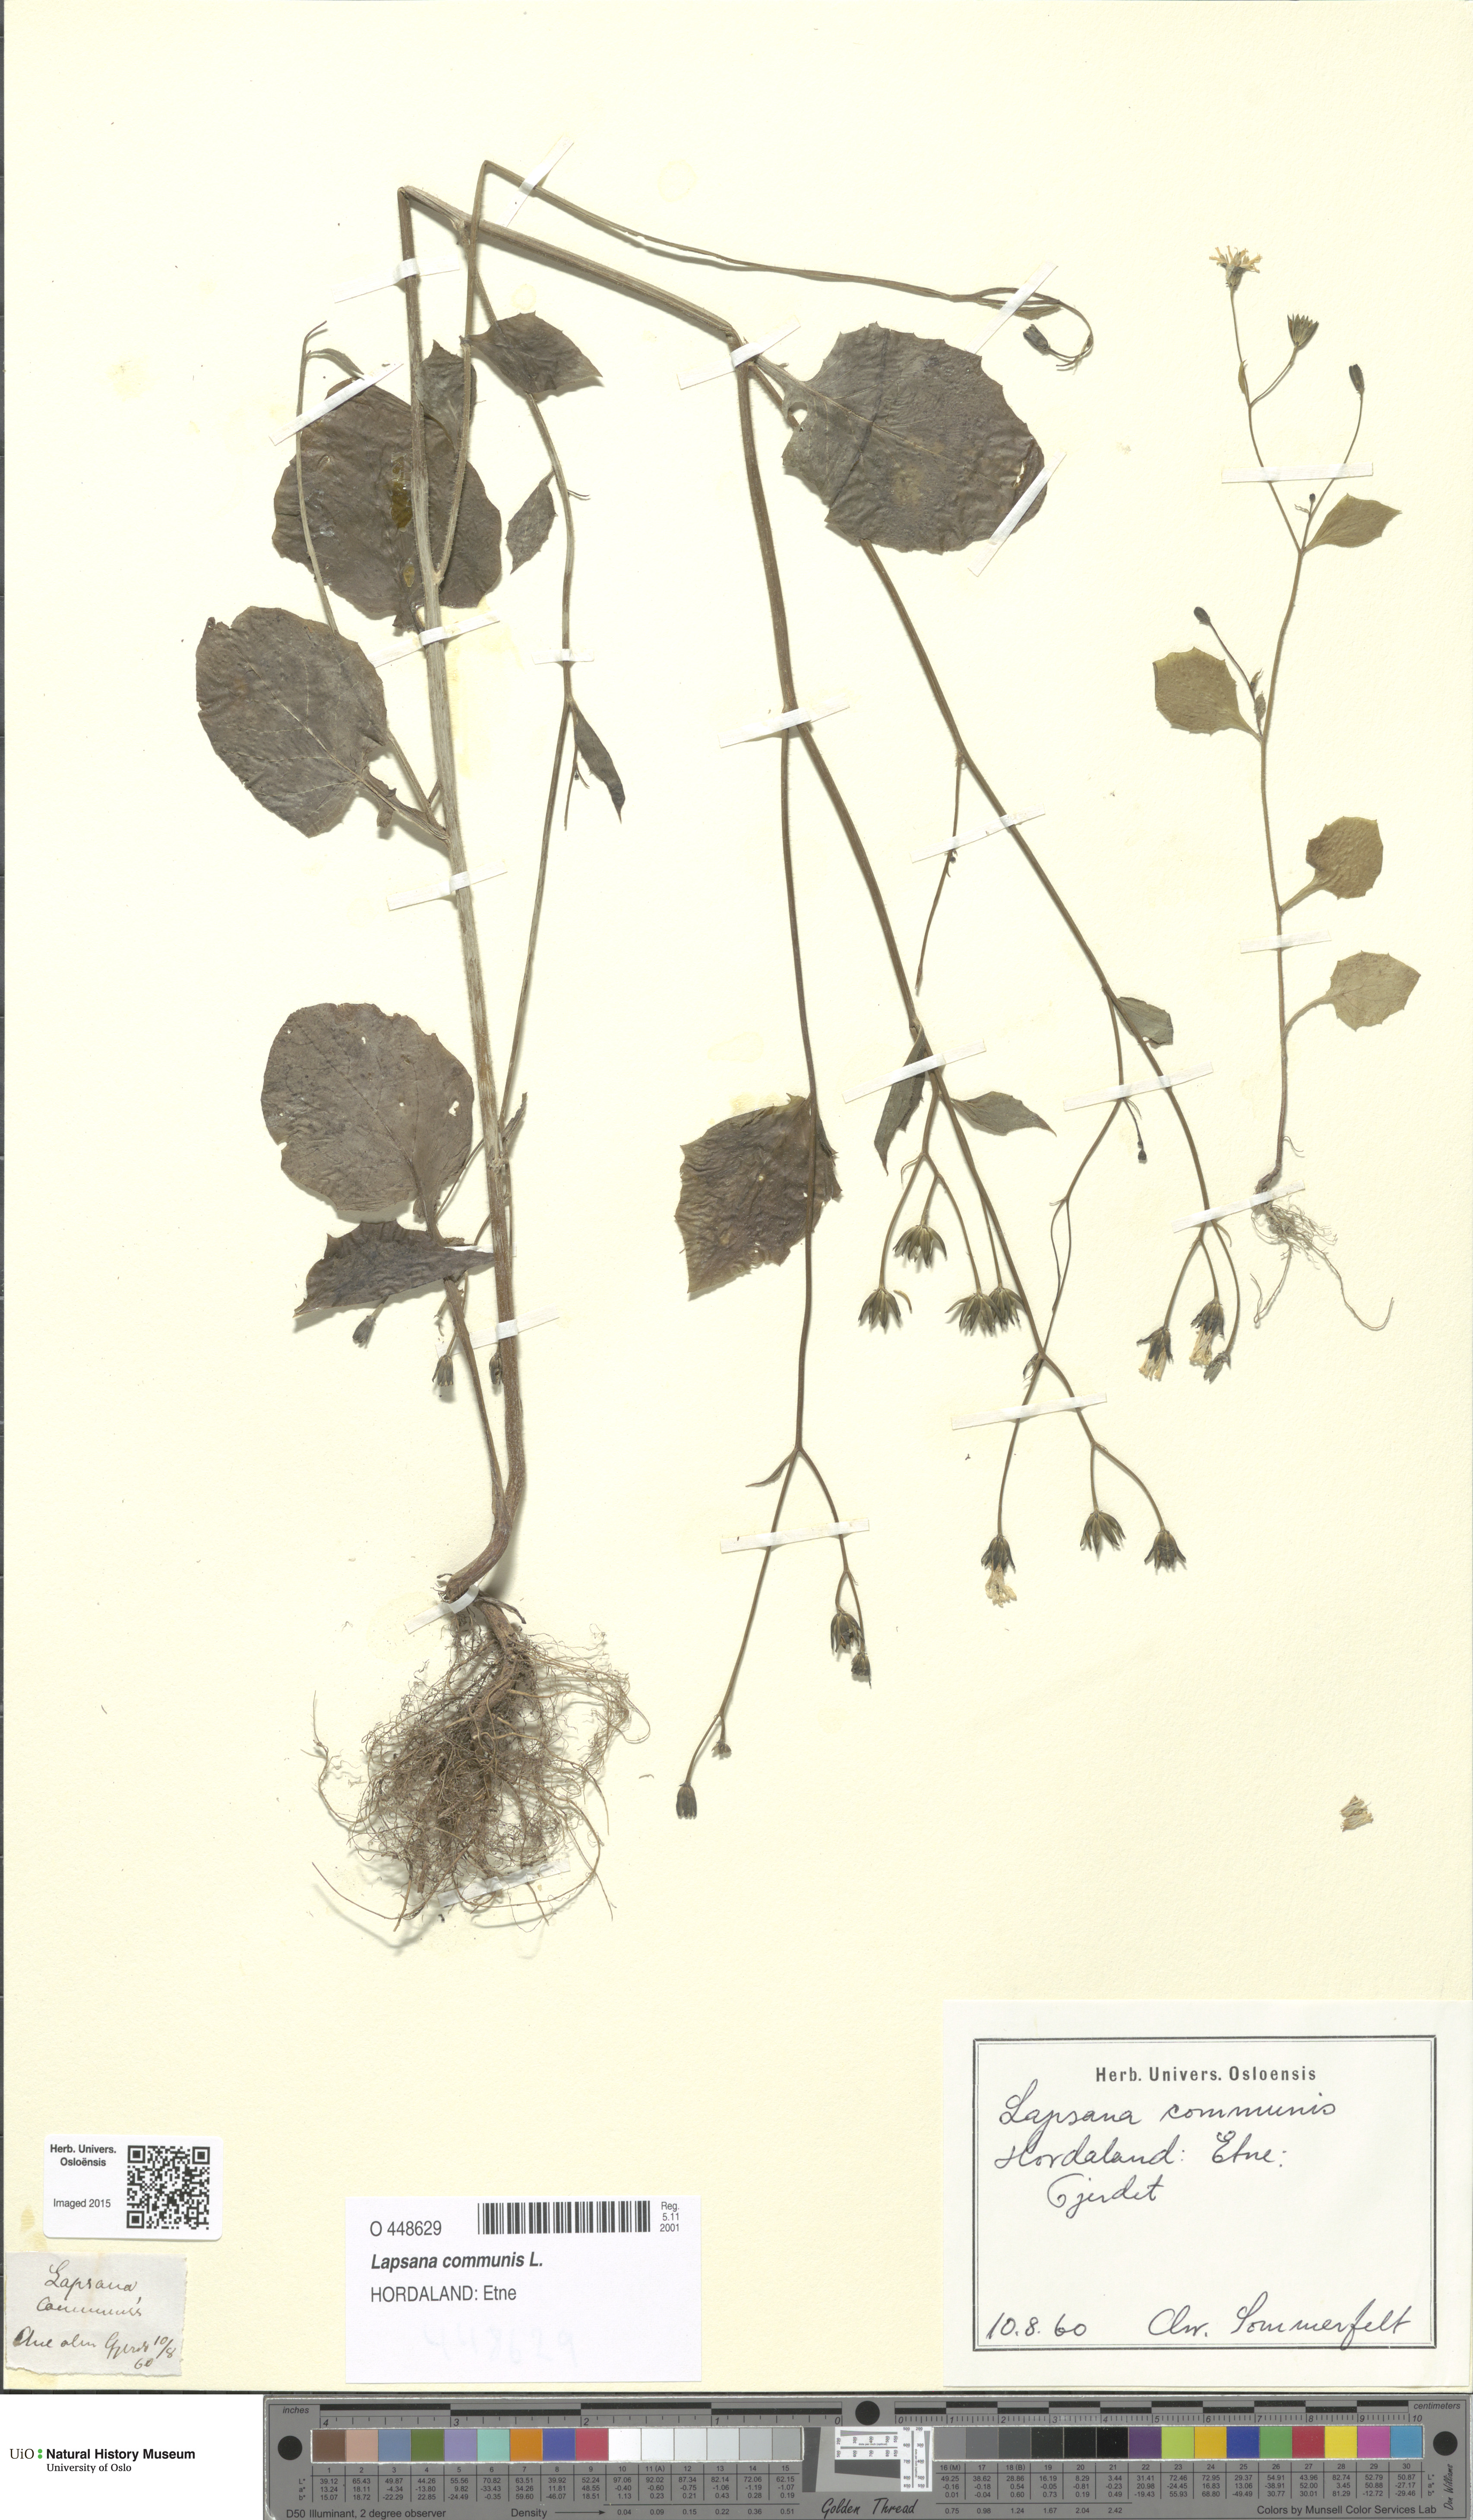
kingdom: Plantae
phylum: Tracheophyta
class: Magnoliopsida
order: Asterales
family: Asteraceae
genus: Lapsana
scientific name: Lapsana communis
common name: Nipplewort
